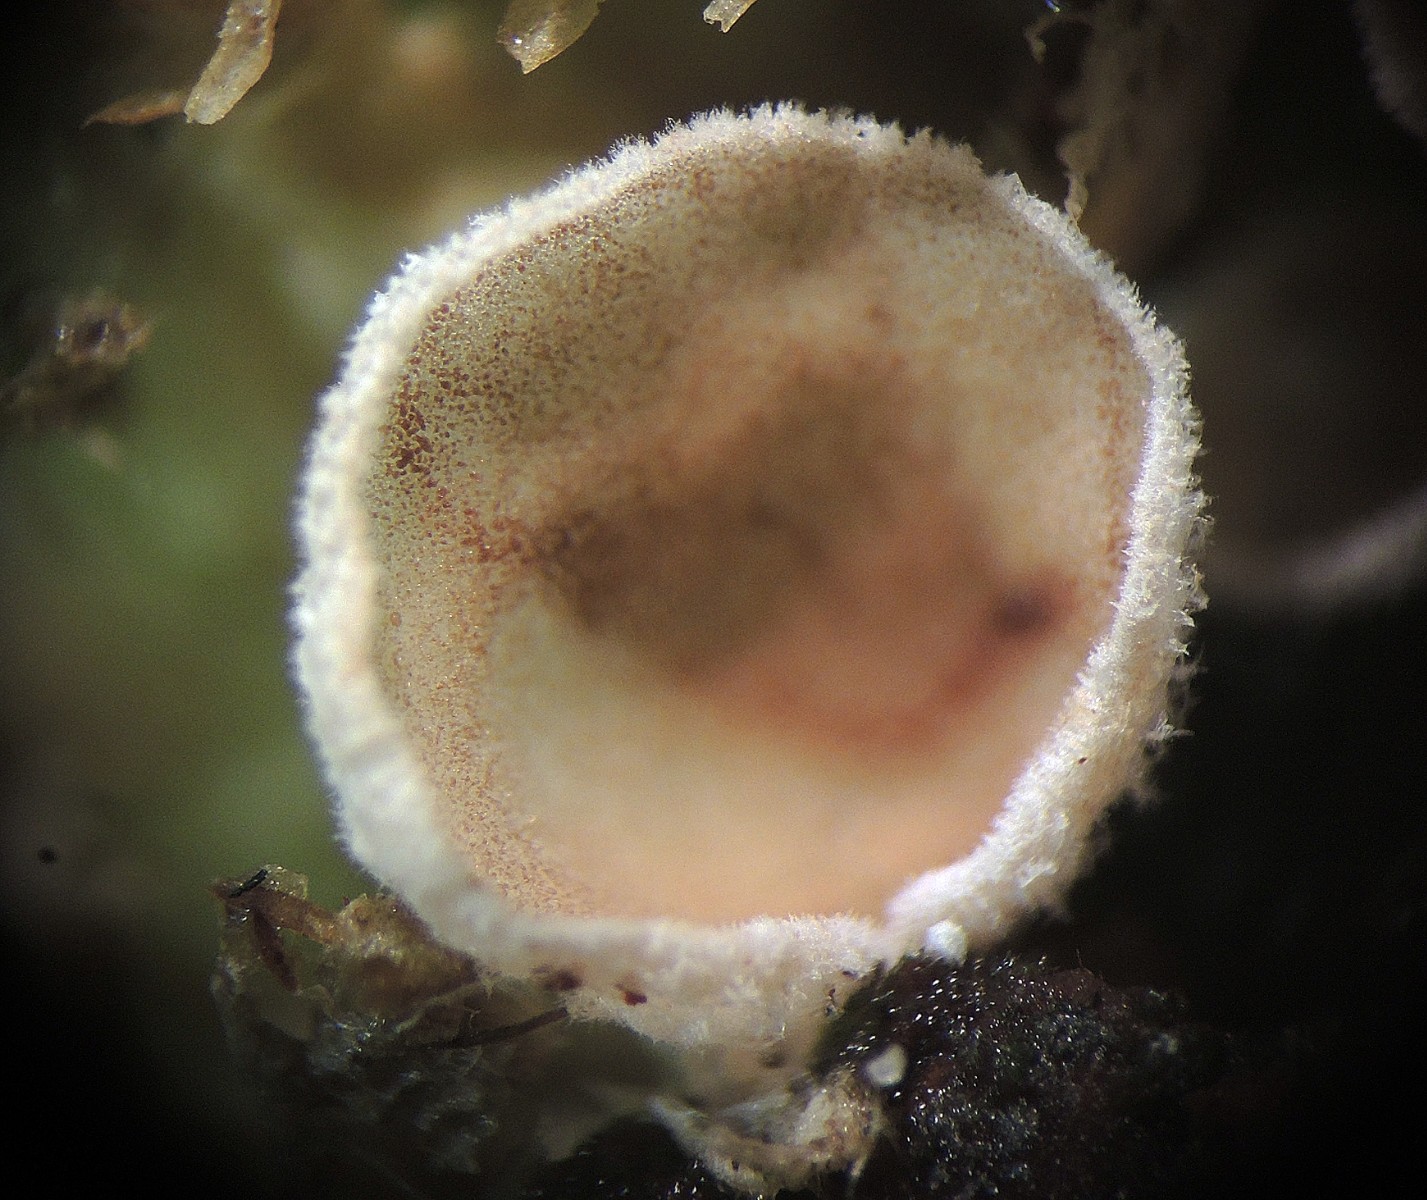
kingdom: Fungi
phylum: Basidiomycota
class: Agaricomycetes
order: Agaricales
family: Chromocyphellaceae
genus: Chromocyphella
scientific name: Chromocyphella muscicola
